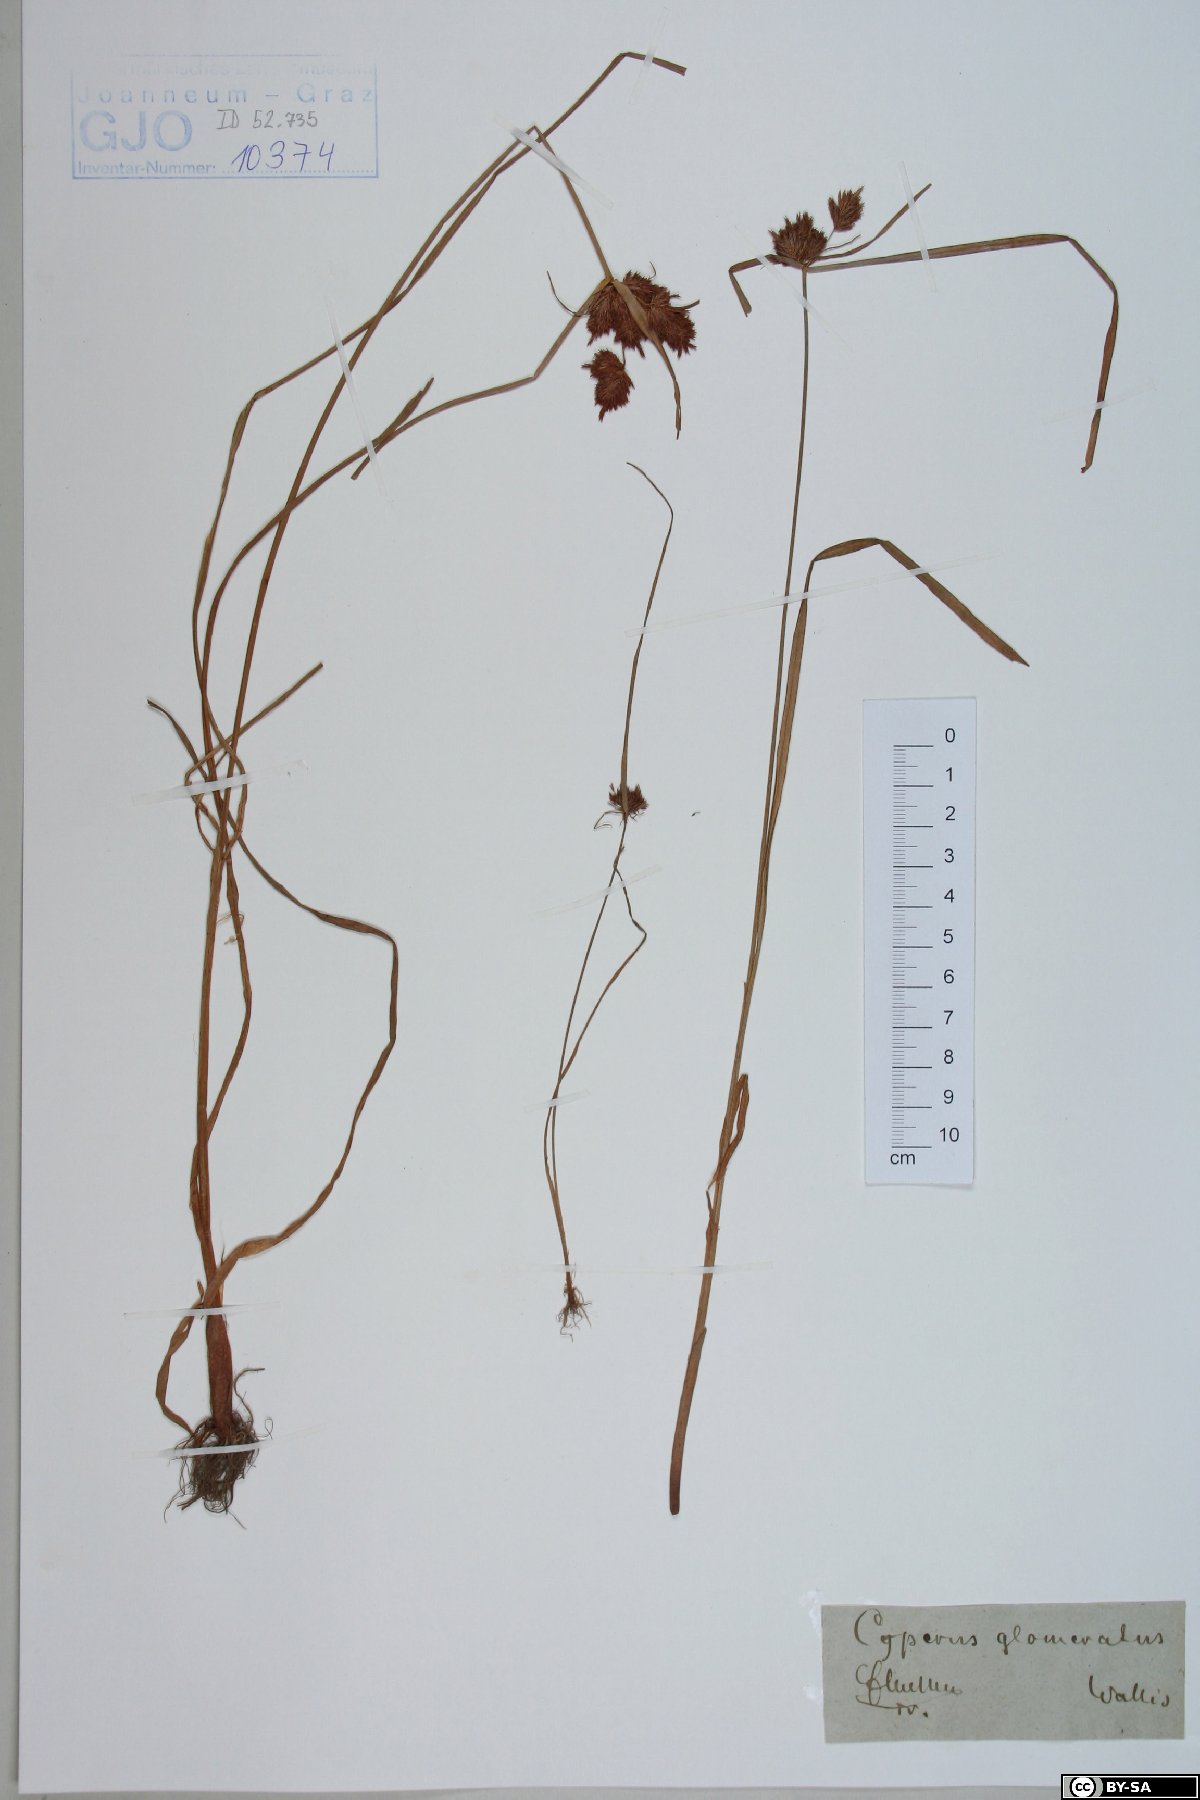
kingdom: Plantae
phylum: Tracheophyta
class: Liliopsida
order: Poales
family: Cyperaceae
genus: Cyperus
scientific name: Cyperus glomeratus
